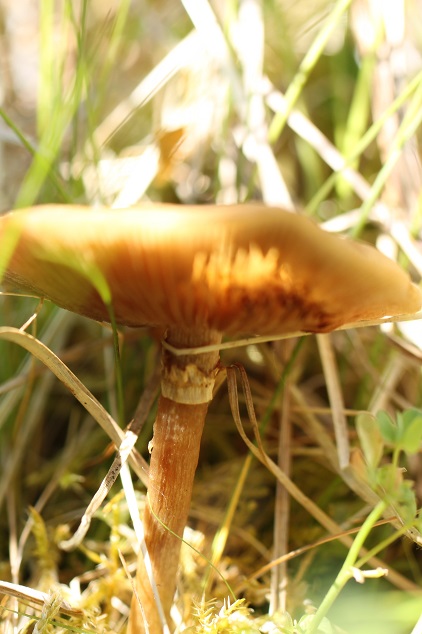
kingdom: Fungi
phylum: Basidiomycota
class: Agaricomycetes
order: Agaricales
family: Strophariaceae
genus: Agrocybe
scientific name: Agrocybe elatella
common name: mose-agerhat
